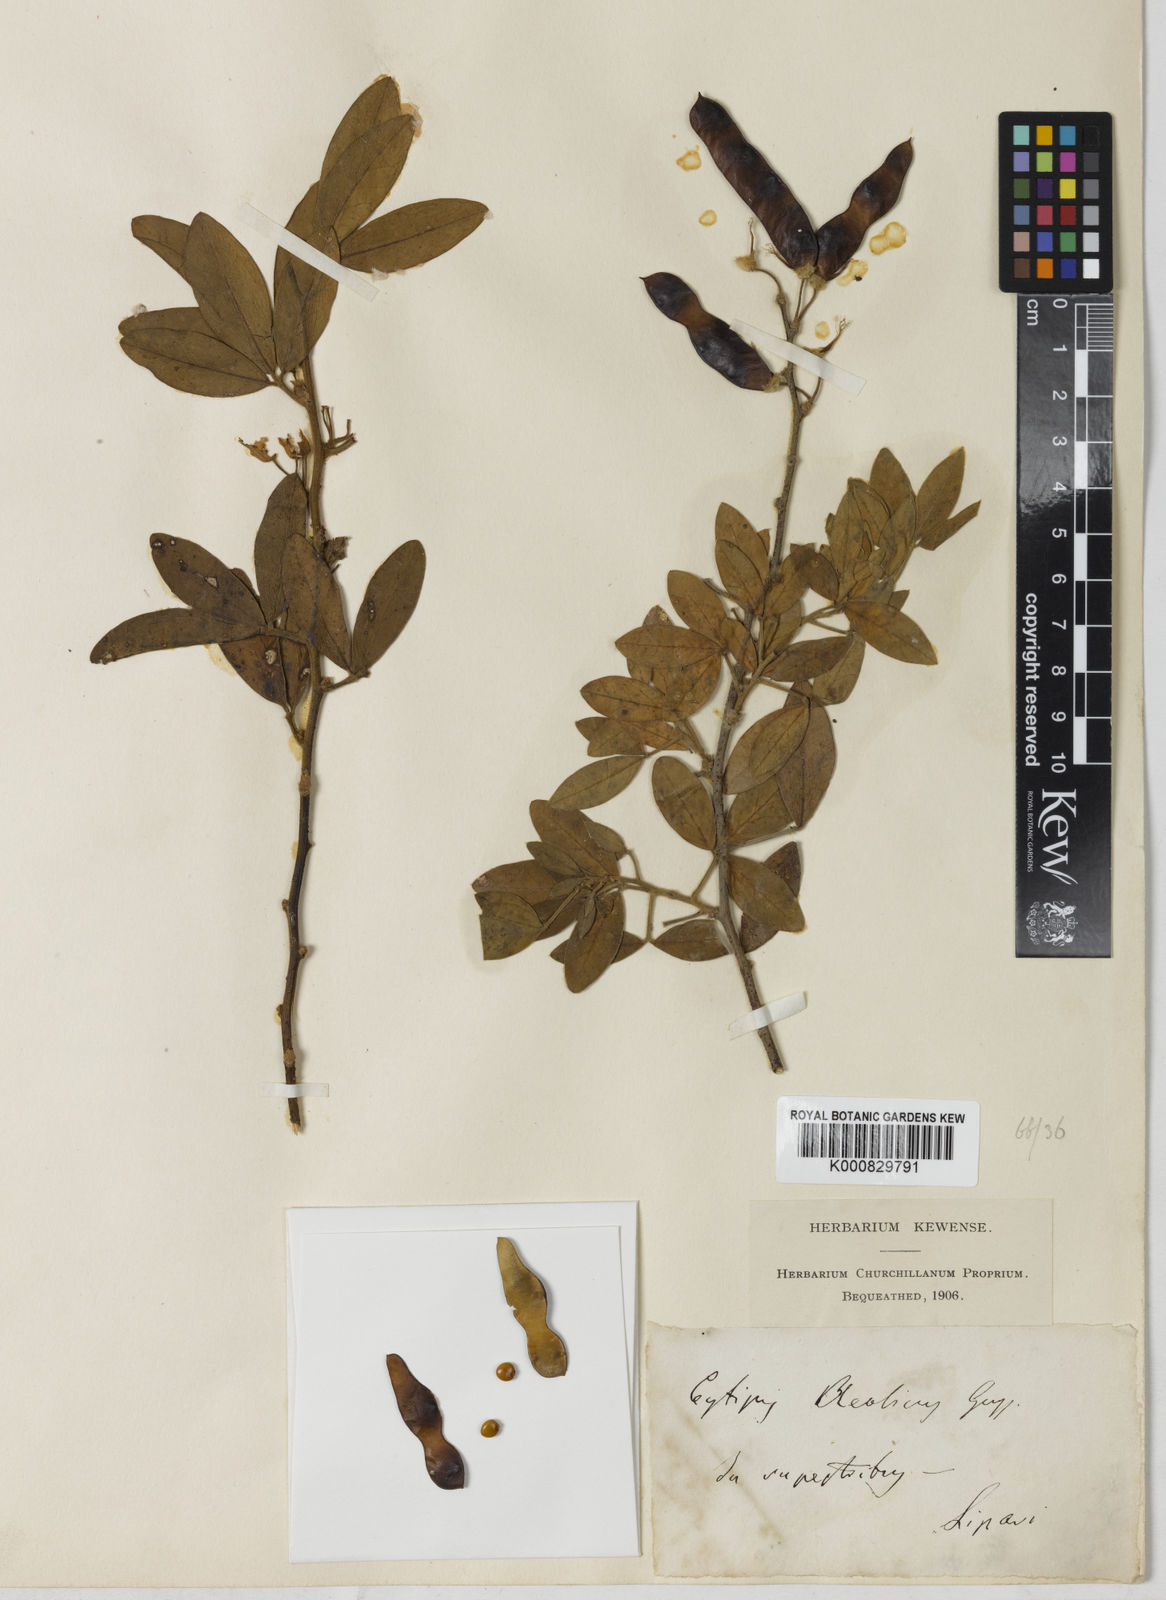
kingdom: Plantae
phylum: Tracheophyta
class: Magnoliopsida
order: Fabales
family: Fabaceae
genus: Cytisus
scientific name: Cytisus aeolicus
